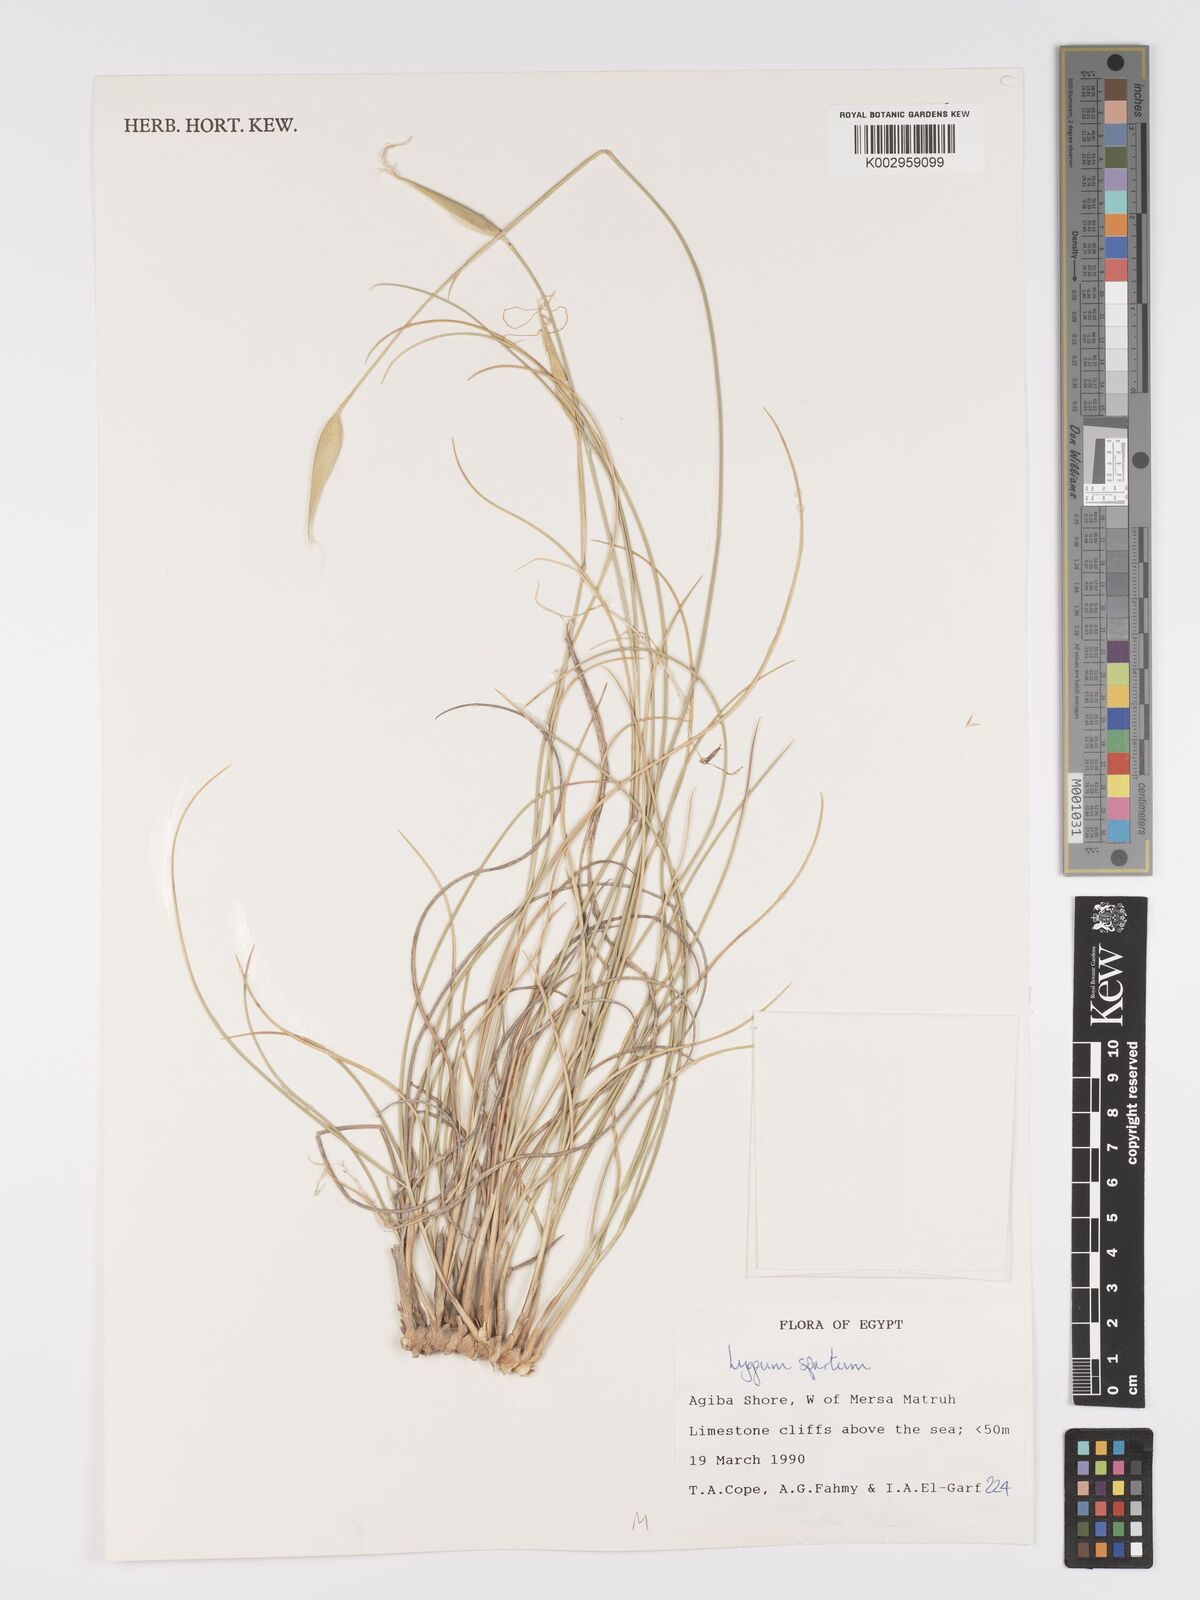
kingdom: Plantae
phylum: Tracheophyta
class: Liliopsida
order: Poales
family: Poaceae
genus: Lygeum
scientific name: Lygeum spartum
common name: Albardine
